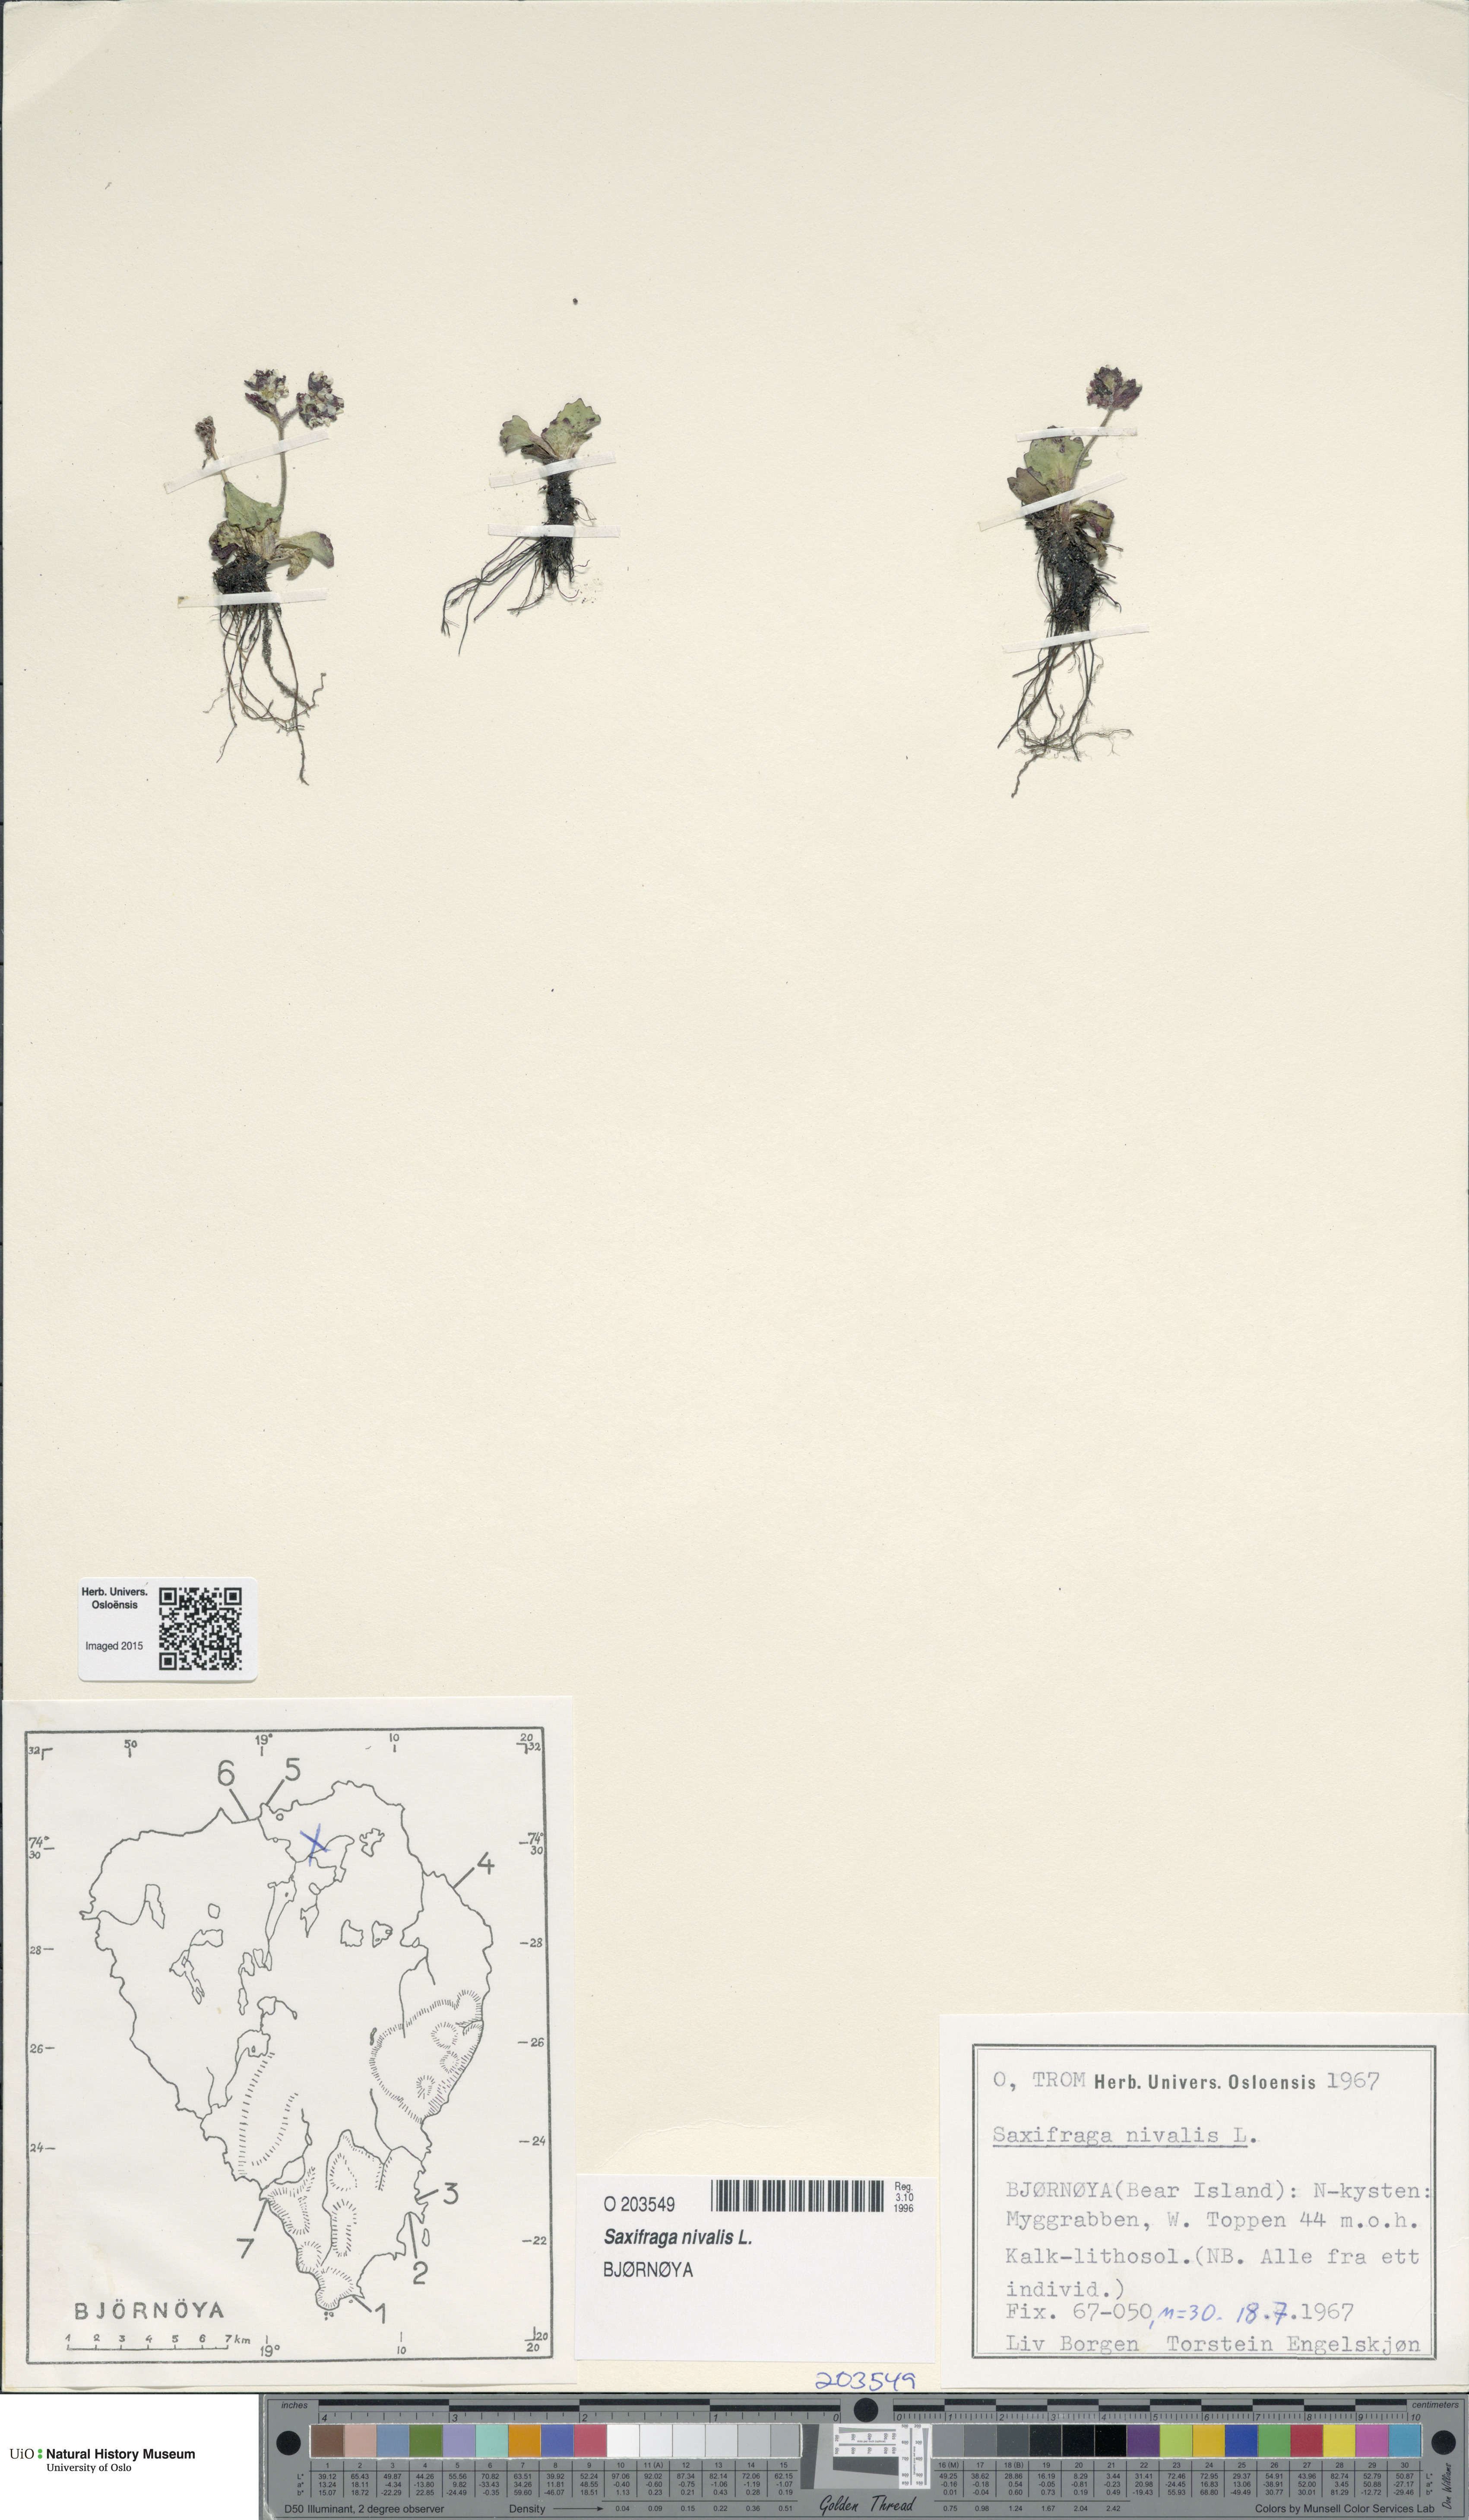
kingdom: Plantae
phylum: Tracheophyta
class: Magnoliopsida
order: Saxifragales
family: Saxifragaceae
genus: Micranthes
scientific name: Micranthes nivalis
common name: Alpine saxifrage
